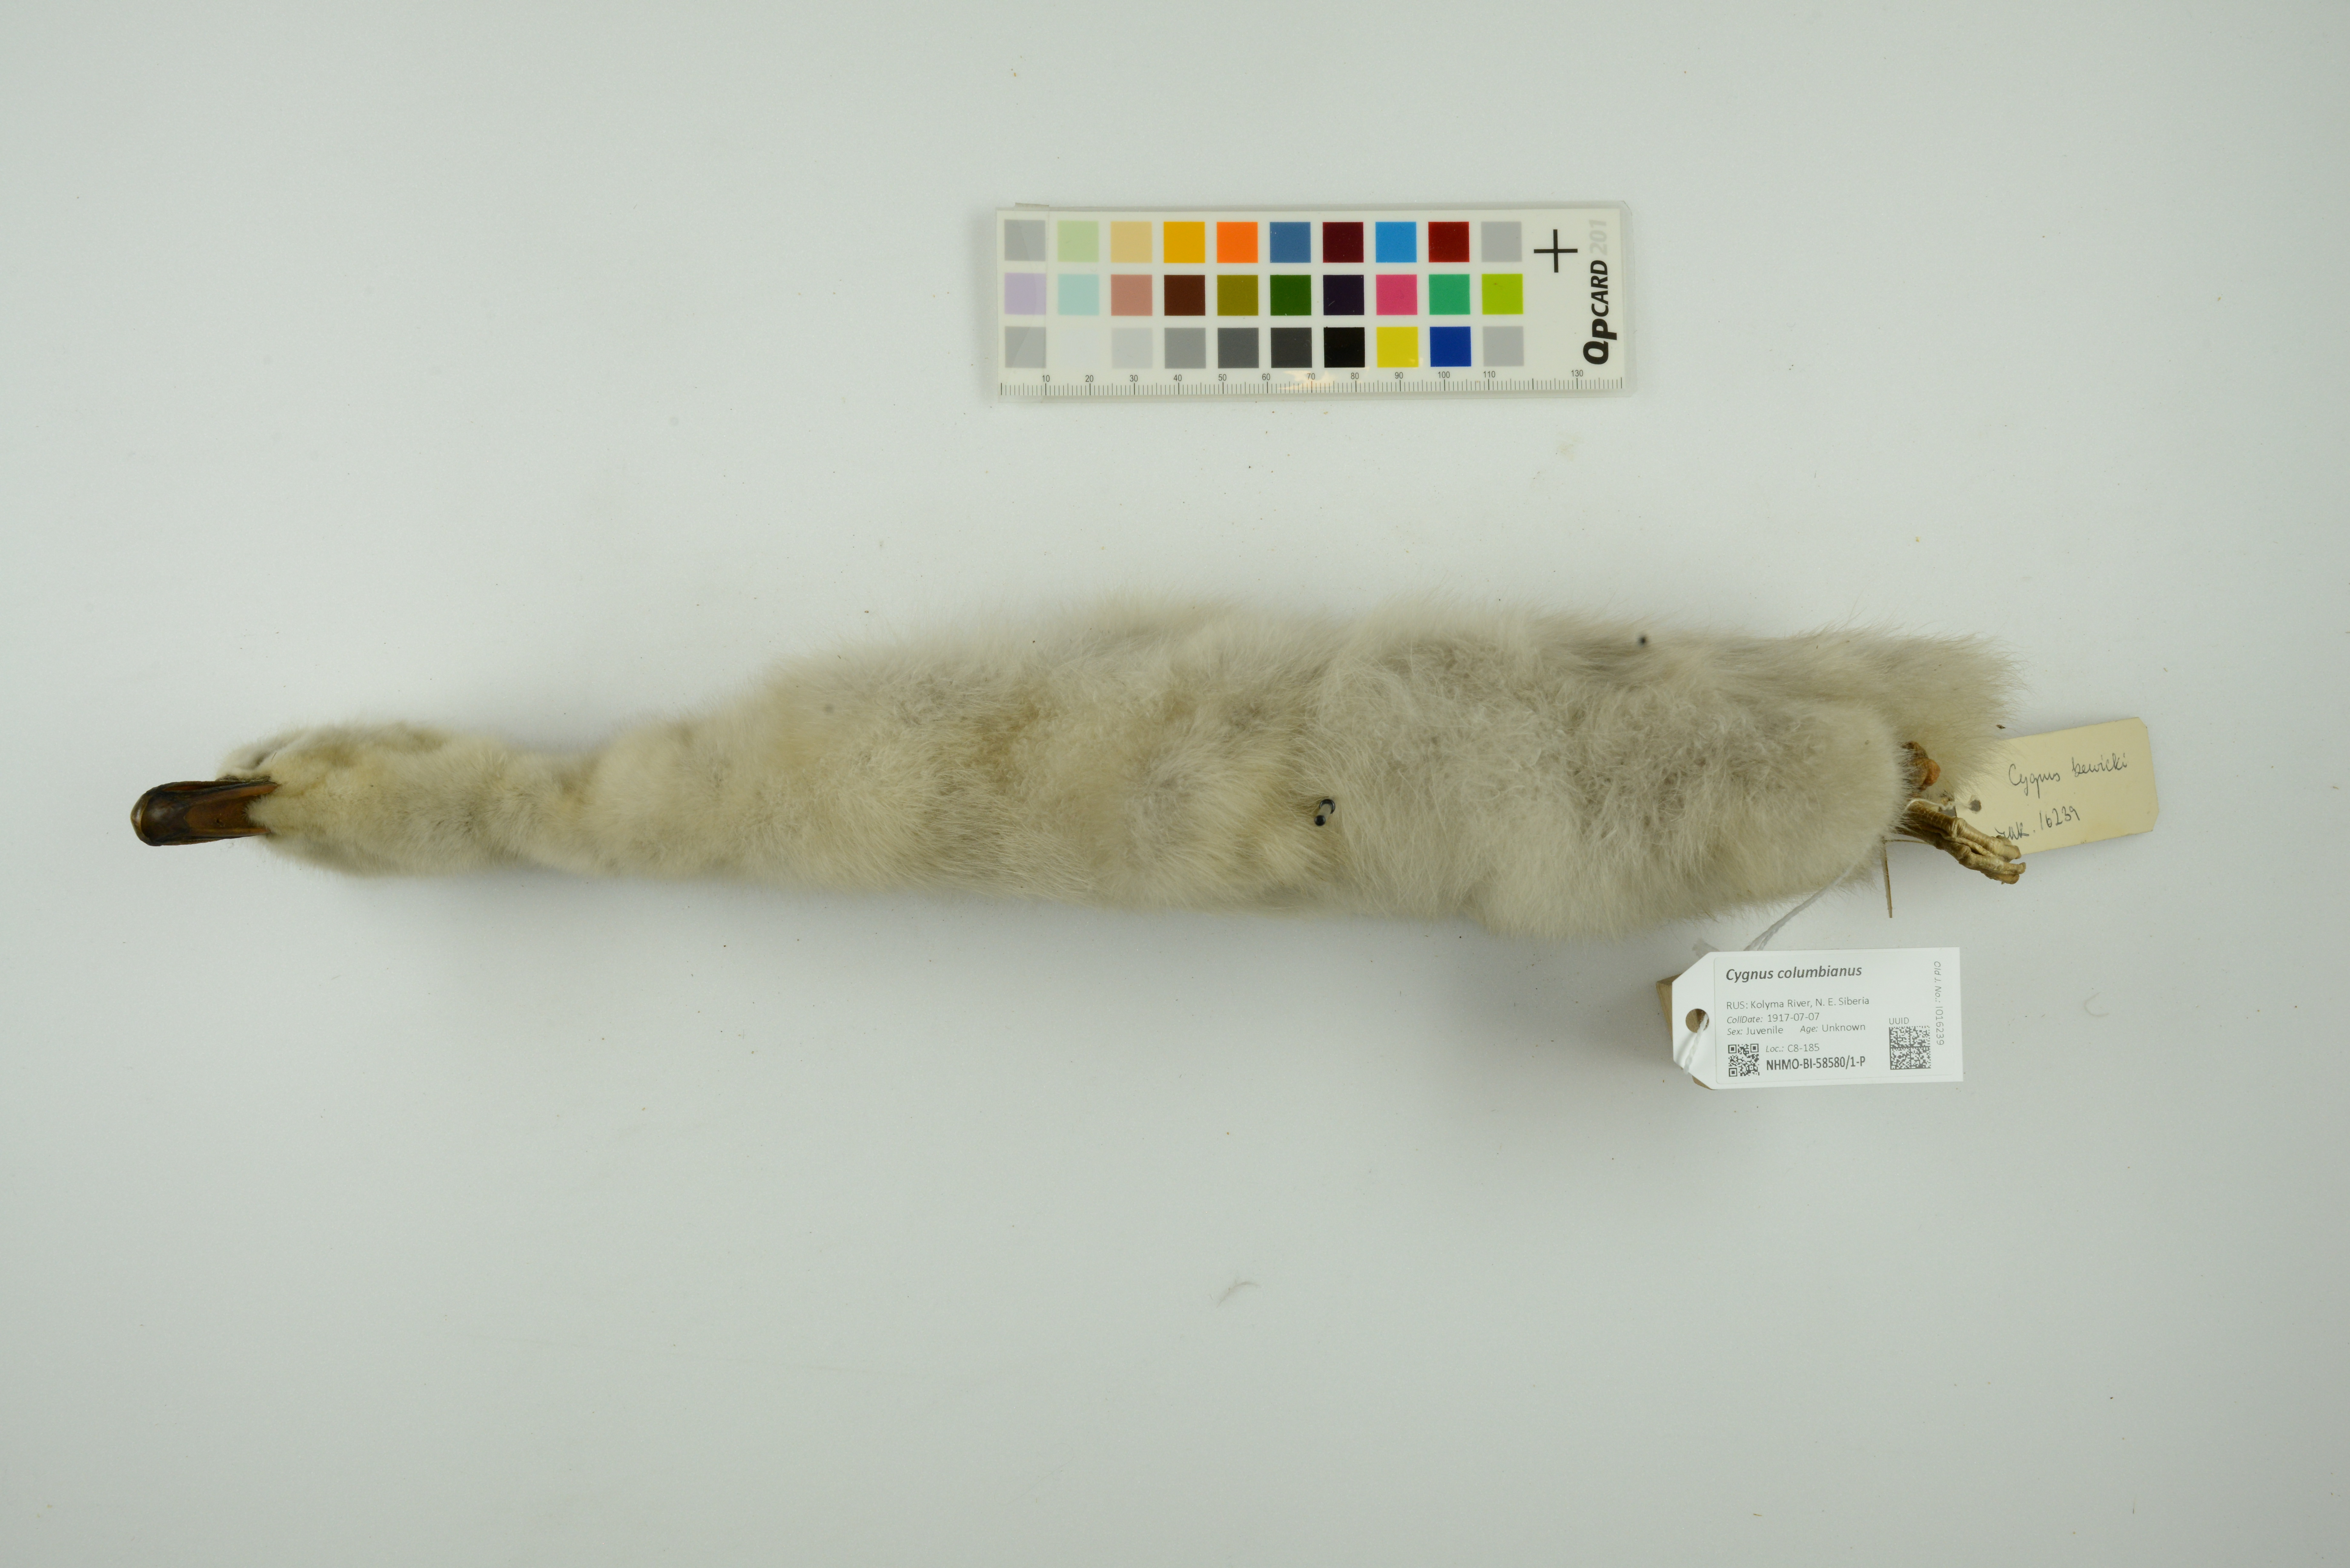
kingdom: Animalia
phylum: Chordata
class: Aves
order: Anseriformes
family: Anatidae
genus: Cygnus
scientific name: Cygnus columbianus
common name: Tundra swan
